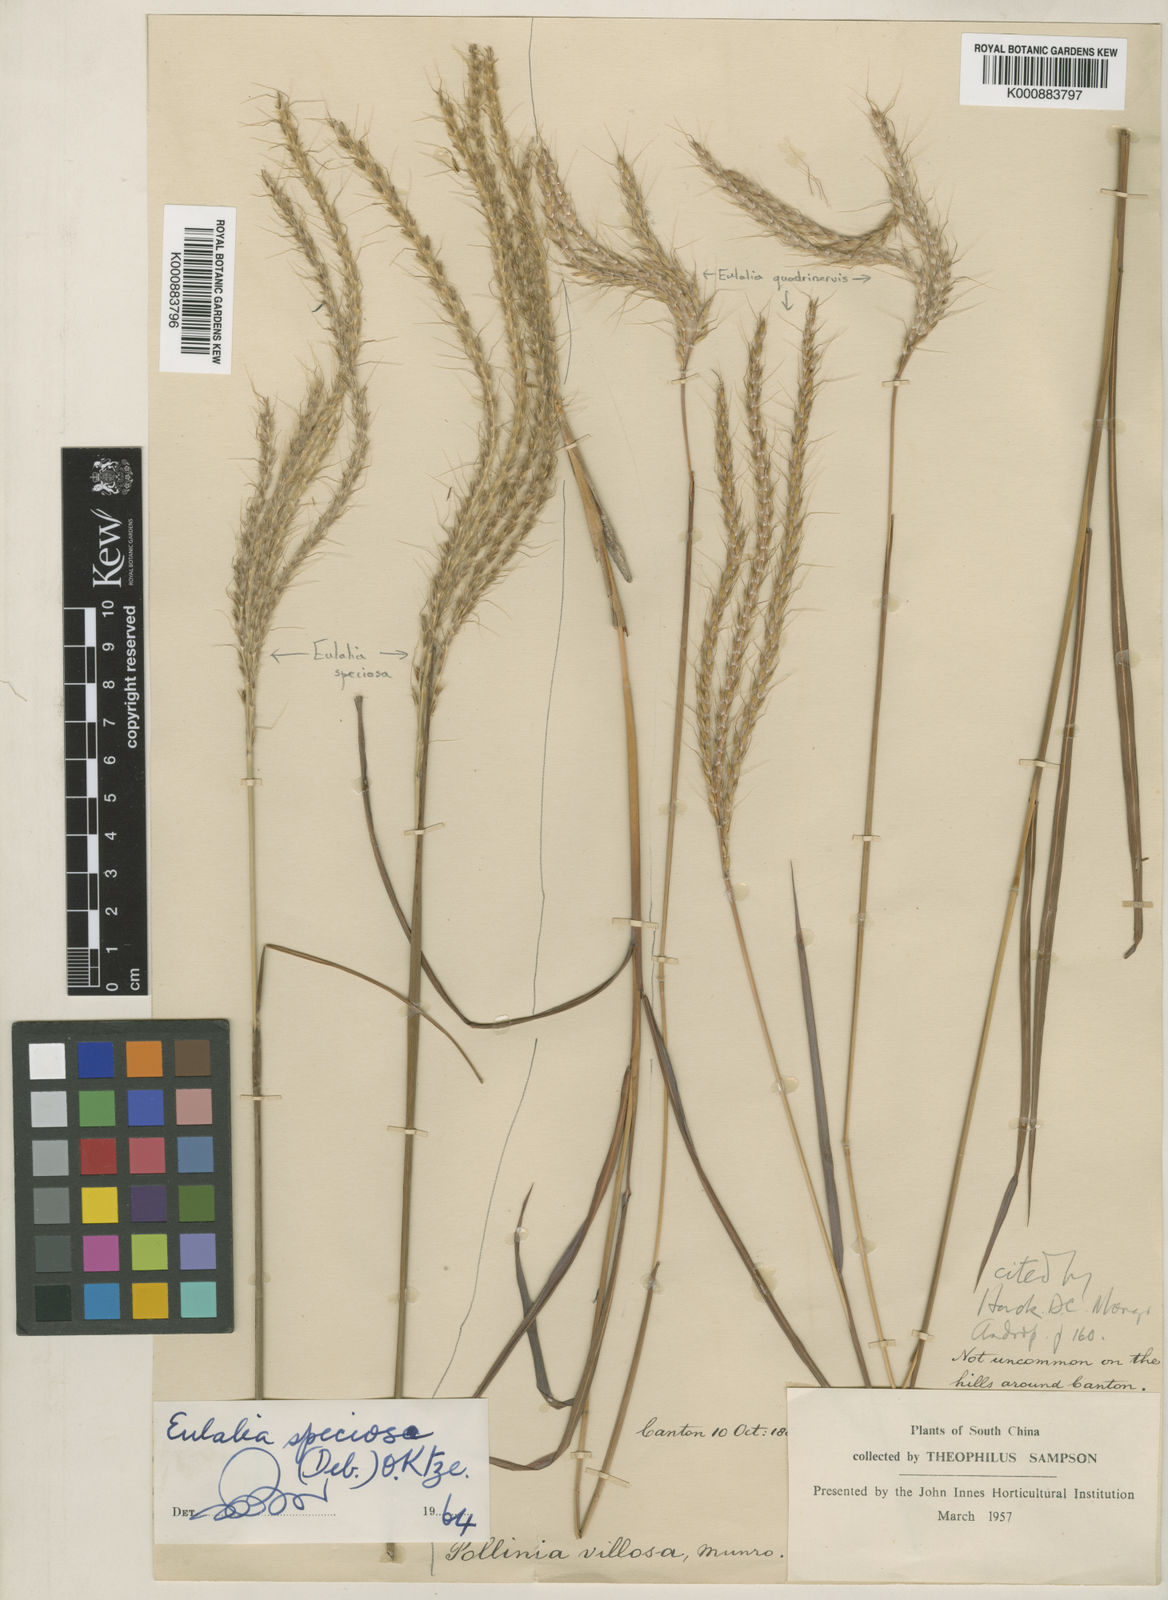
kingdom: Plantae
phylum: Tracheophyta
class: Liliopsida
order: Poales
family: Poaceae
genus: Pseudopogonatherum
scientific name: Pseudopogonatherum quadrinerve
